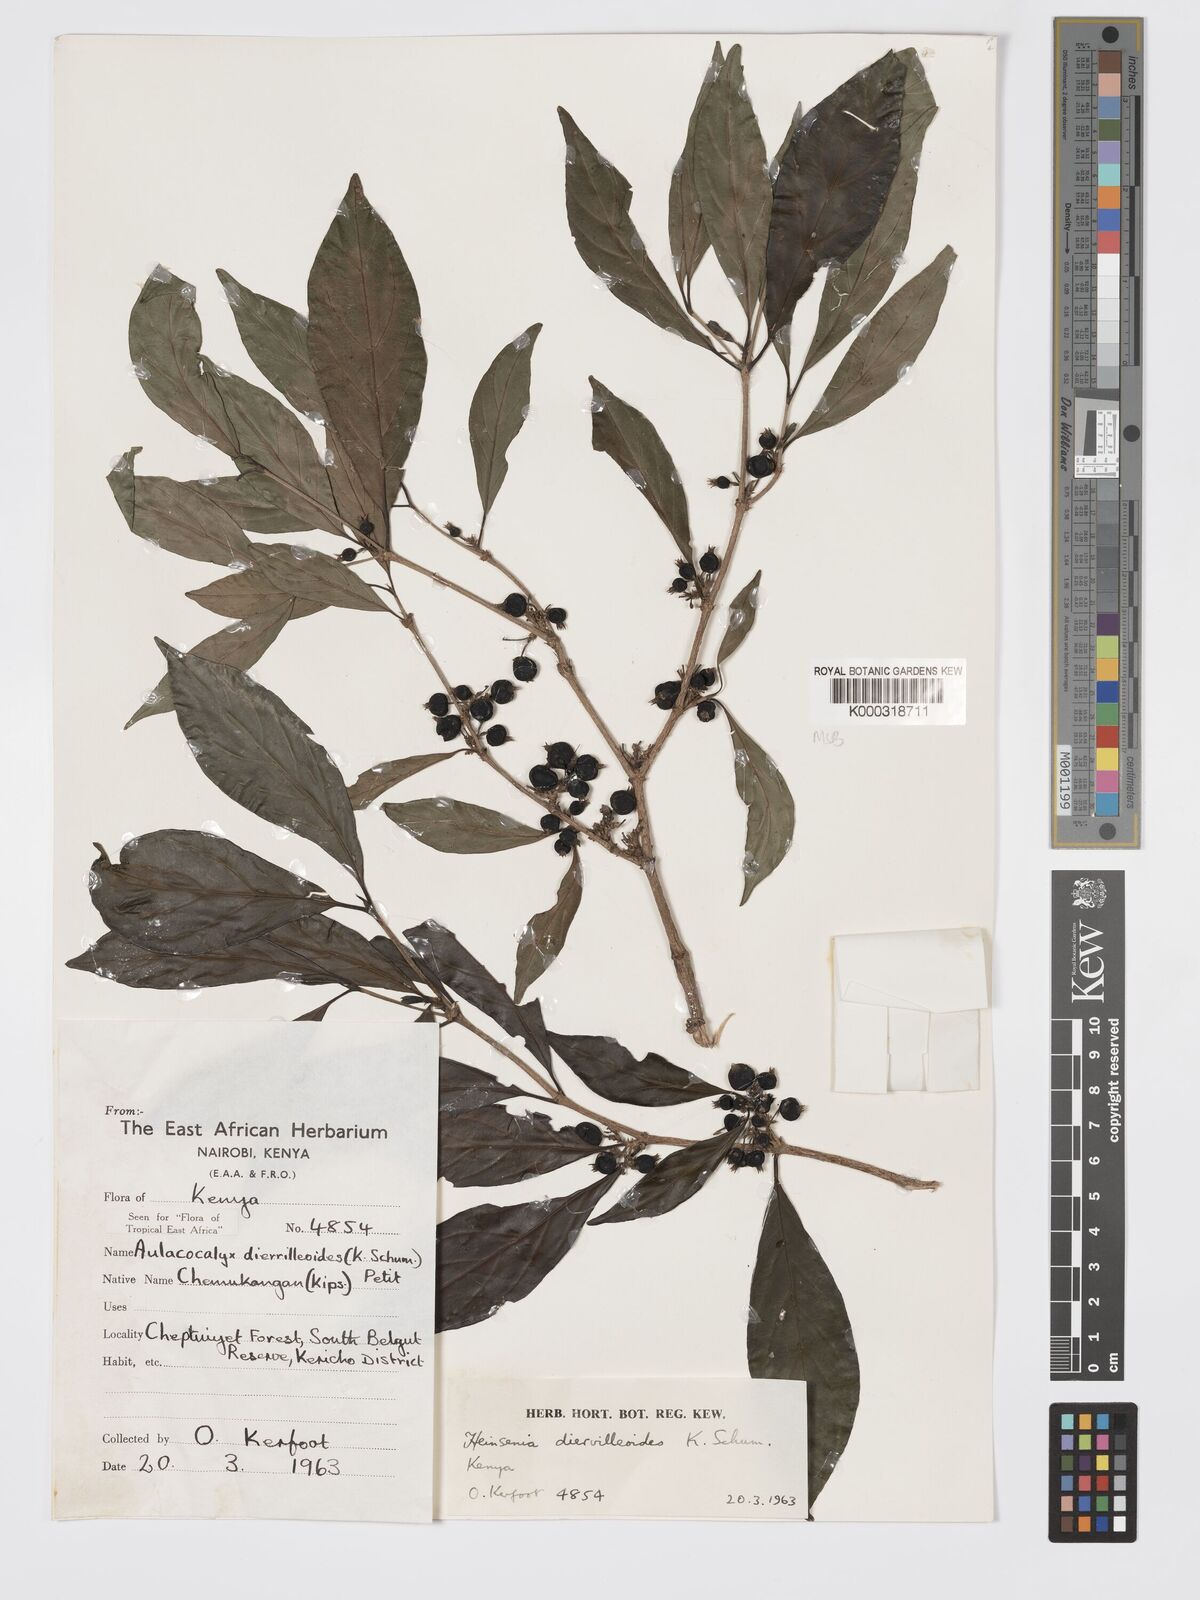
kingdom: Plantae
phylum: Tracheophyta
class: Magnoliopsida
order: Gentianales
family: Rubiaceae
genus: Heinsenia
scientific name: Heinsenia diervilleoides
